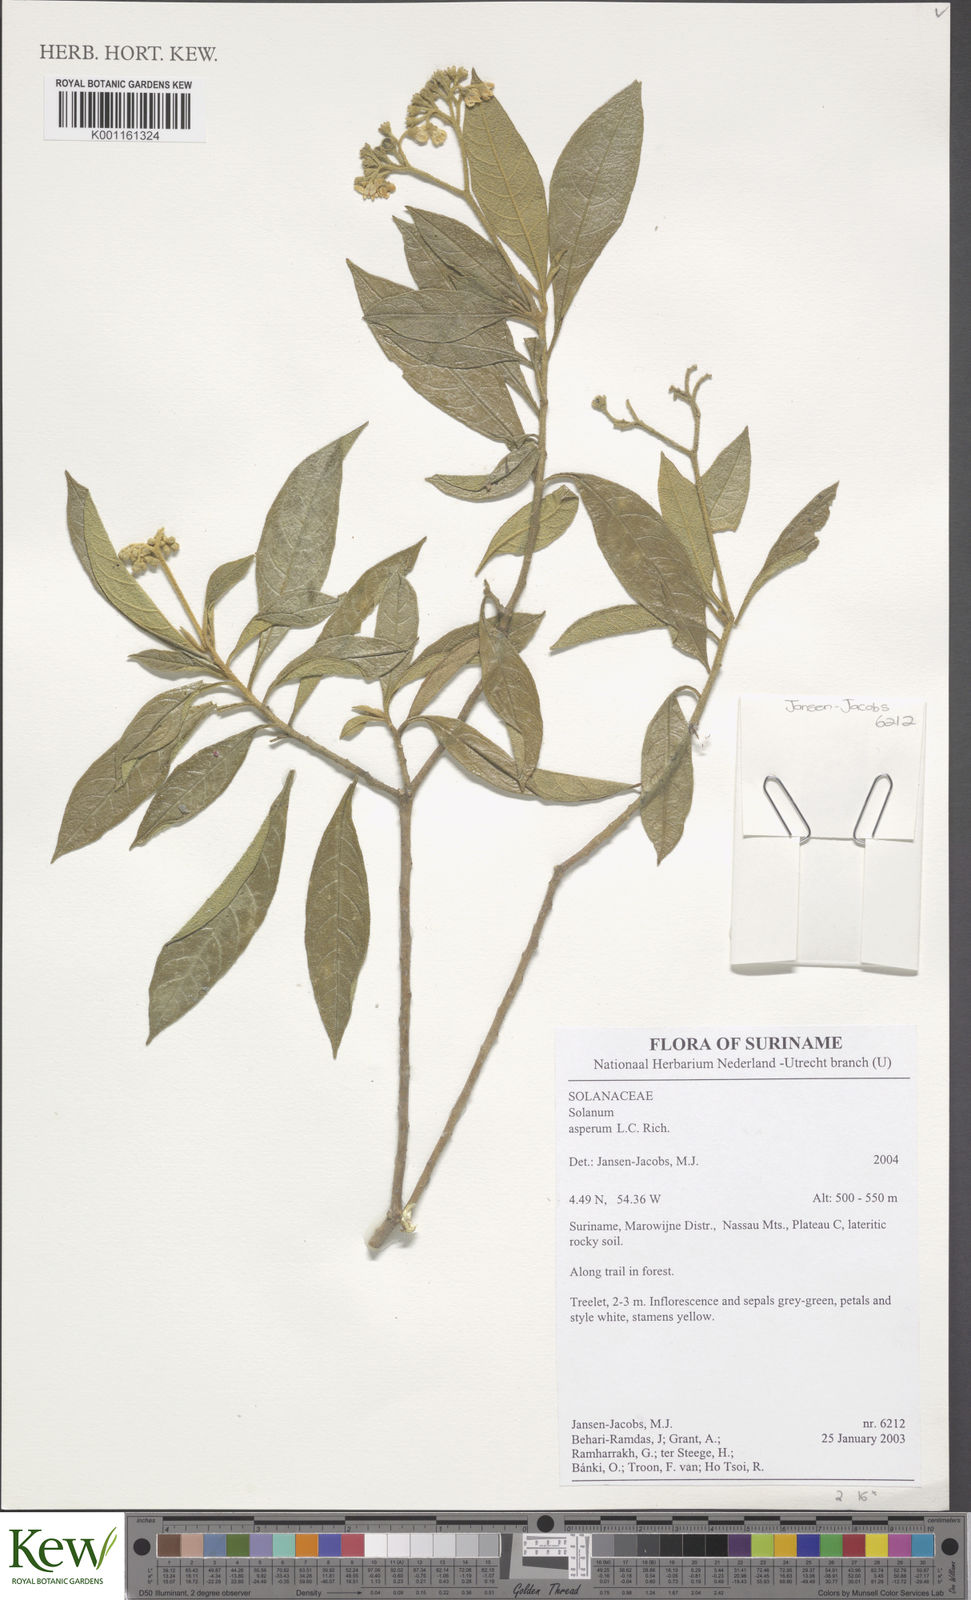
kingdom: Plantae
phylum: Tracheophyta
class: Magnoliopsida
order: Solanales
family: Solanaceae
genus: Solanum
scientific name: Solanum asperum
